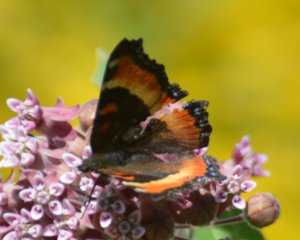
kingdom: Animalia
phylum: Arthropoda
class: Insecta
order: Lepidoptera
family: Nymphalidae
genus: Aglais
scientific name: Aglais milberti
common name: Milbert's Tortoiseshell
